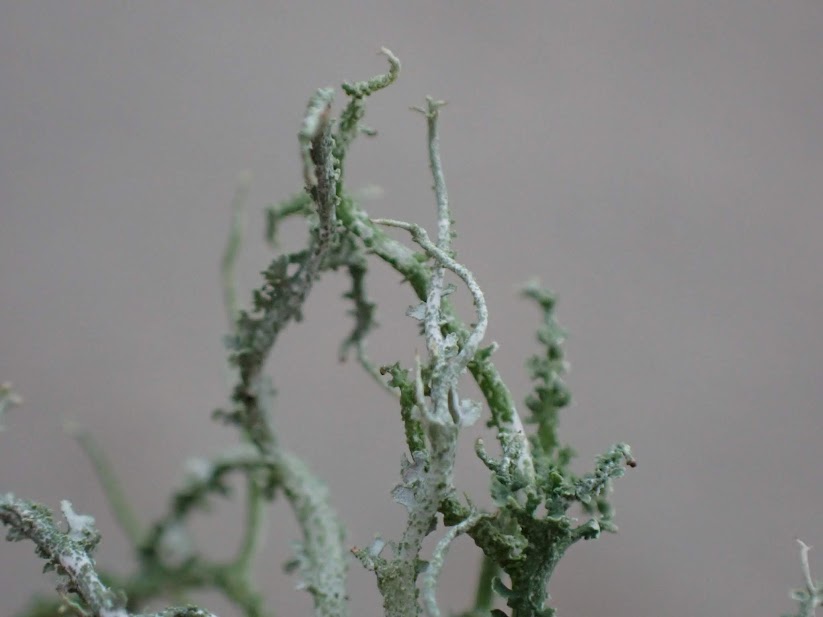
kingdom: Fungi
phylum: Ascomycota
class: Lecanoromycetes
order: Lecanorales
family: Cladoniaceae
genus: Cladonia
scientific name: Cladonia scabriuscula
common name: ru bægerlav
